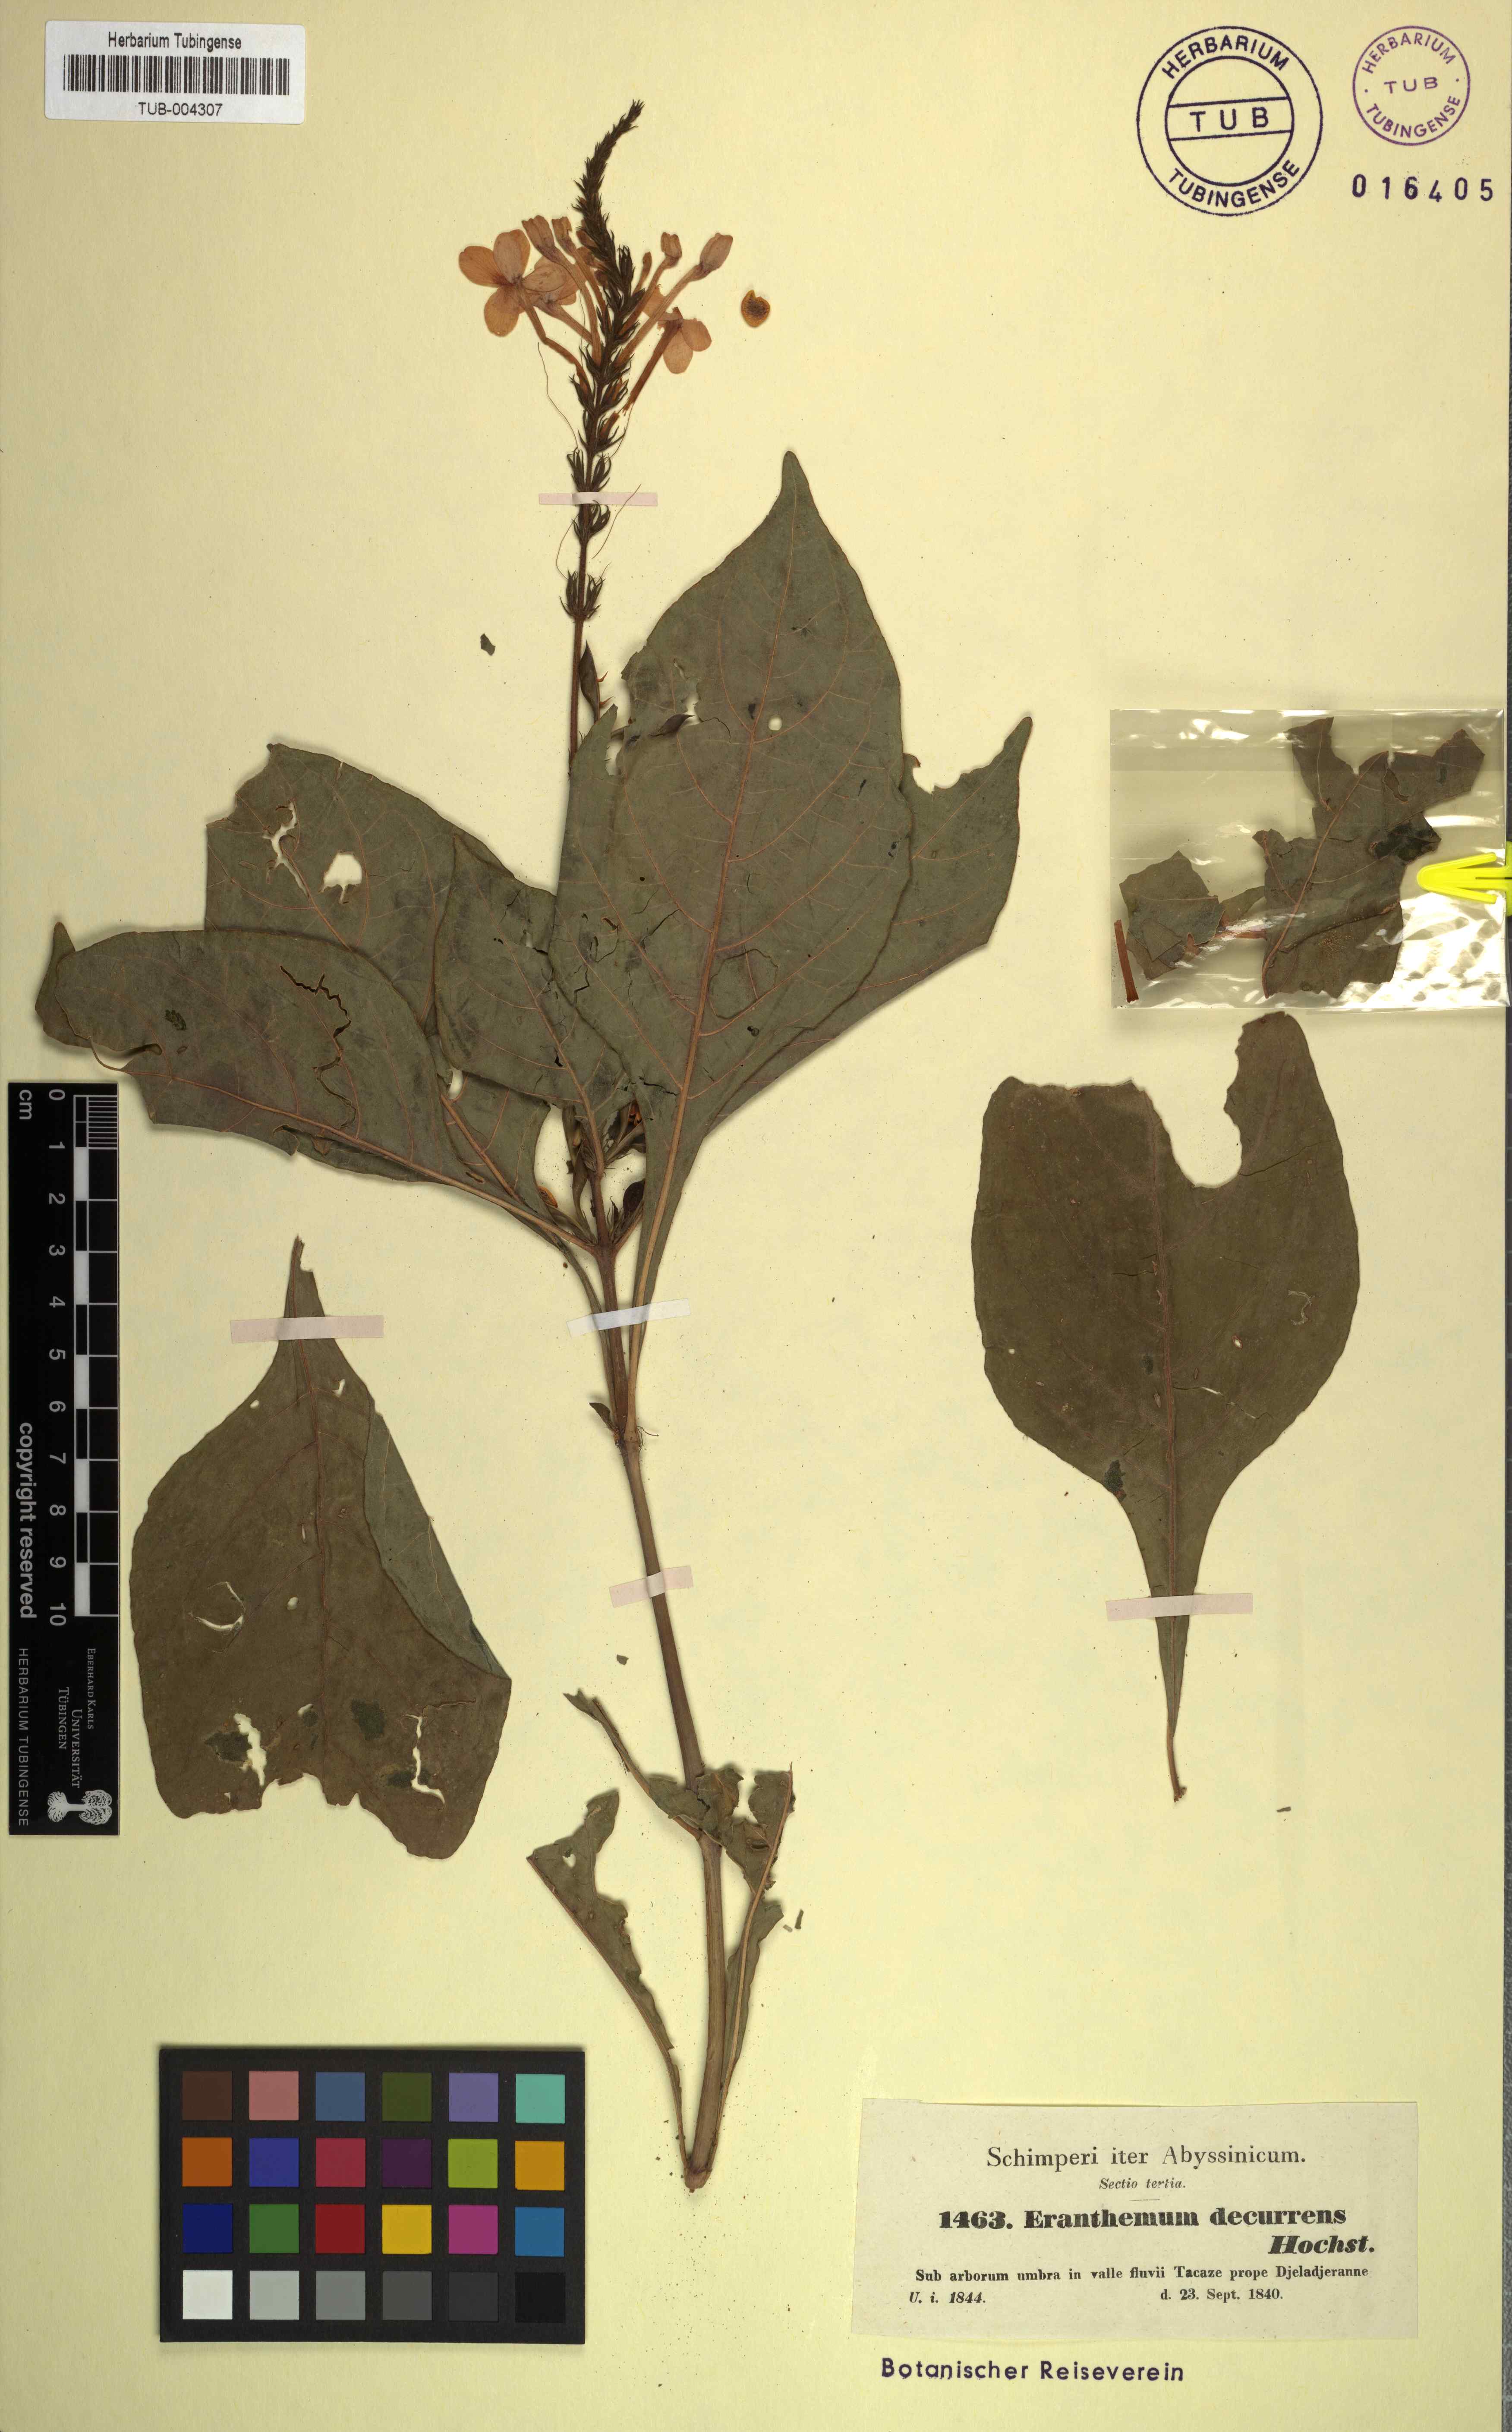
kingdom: Plantae
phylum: Tracheophyta
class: Magnoliopsida
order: Lamiales
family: Acanthaceae
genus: Ruspolia
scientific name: Ruspolia decurrens
